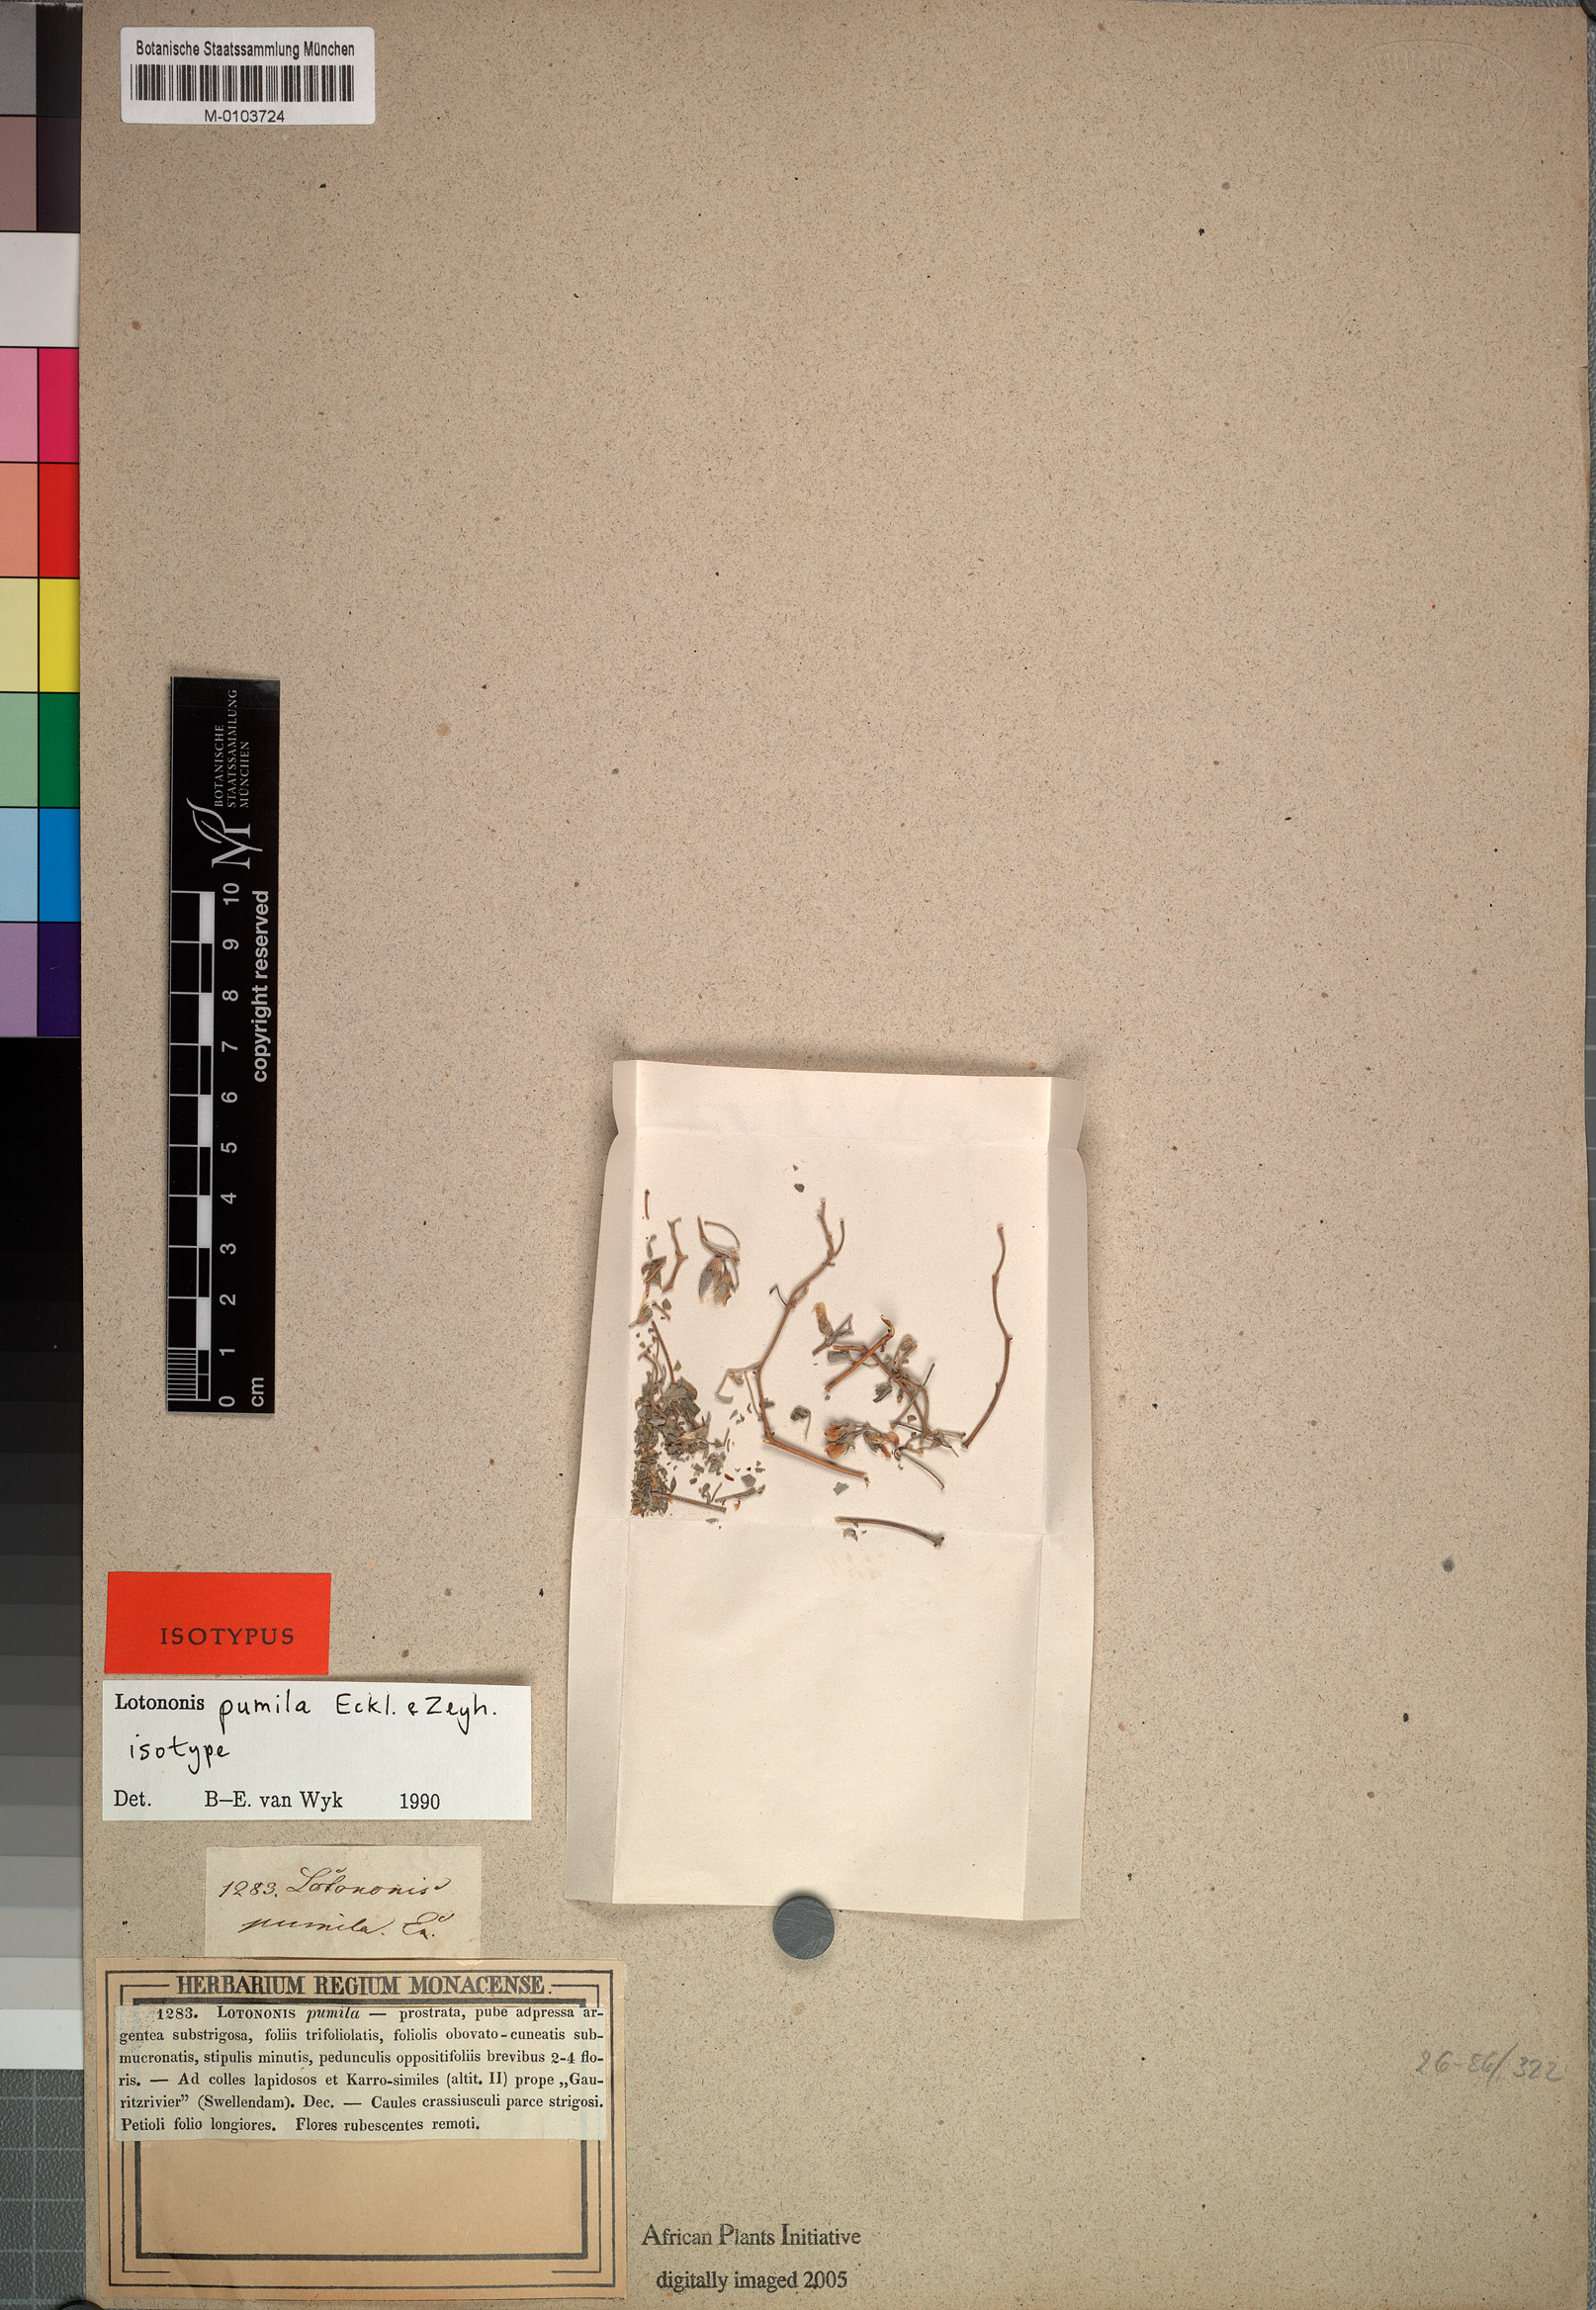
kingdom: Plantae
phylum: Tracheophyta
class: Magnoliopsida
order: Fabales
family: Fabaceae
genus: Lotononis
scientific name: Lotononis pumila
